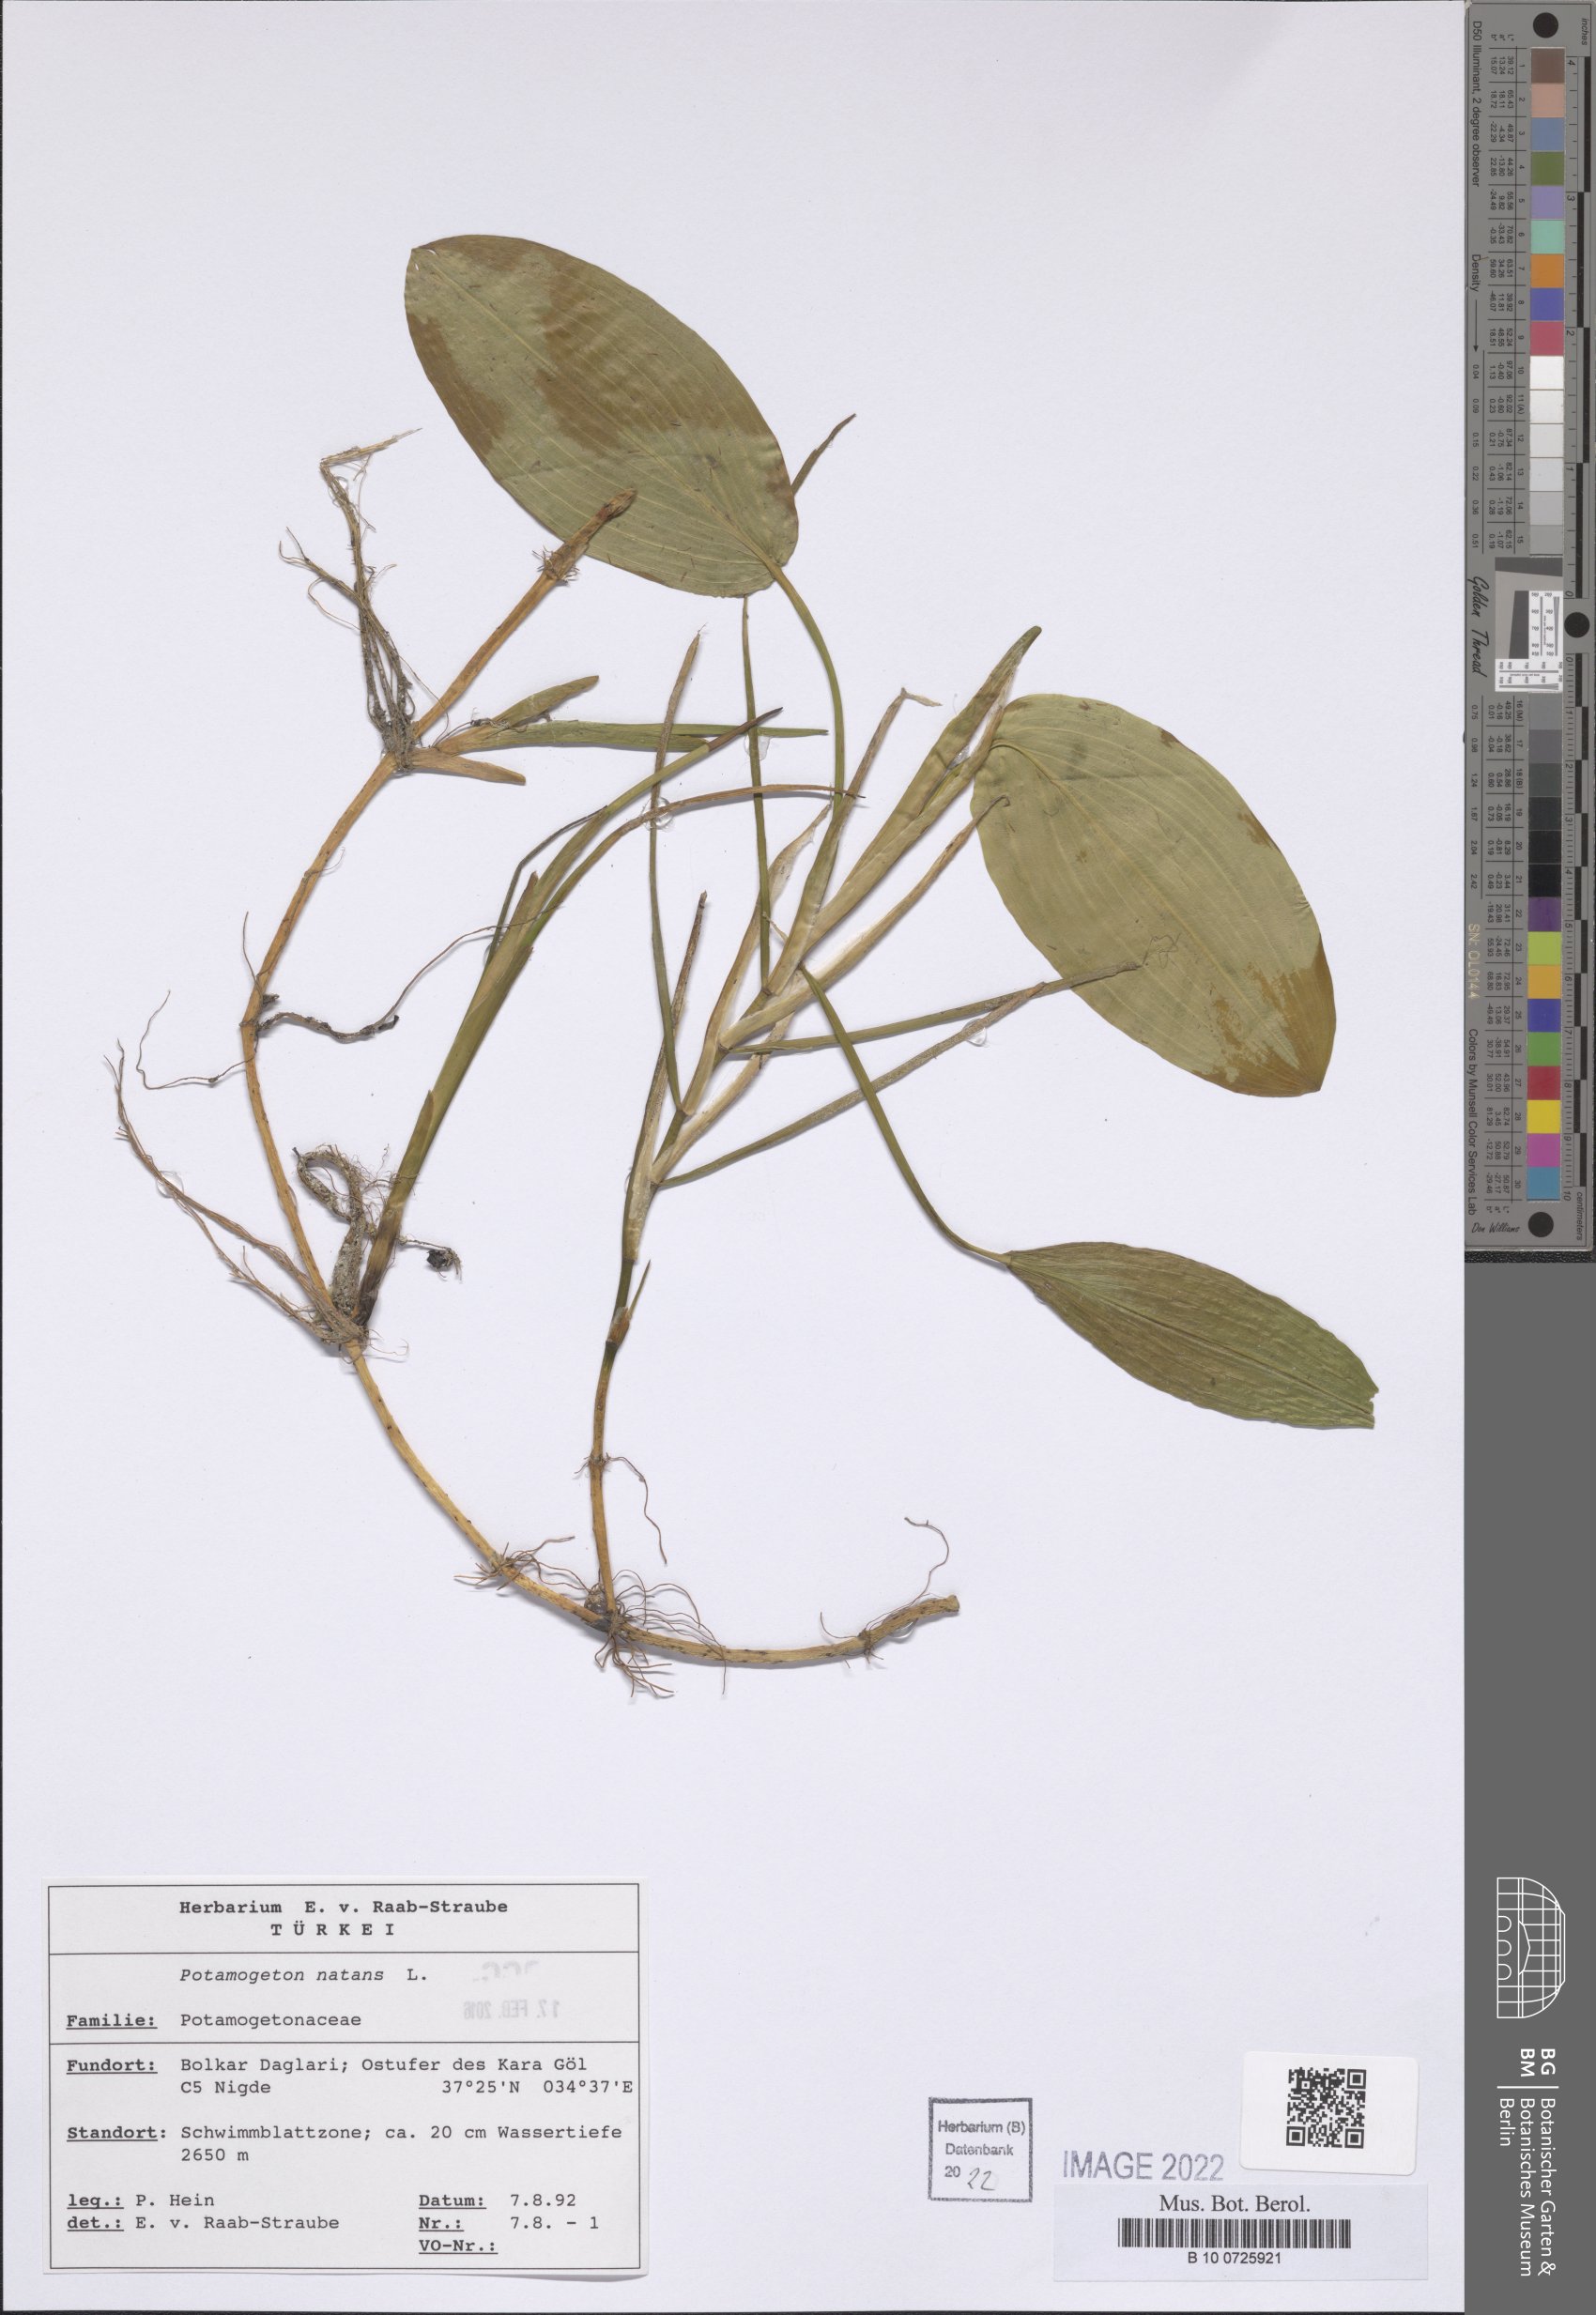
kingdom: Plantae
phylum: Tracheophyta
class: Liliopsida
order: Alismatales
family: Potamogetonaceae
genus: Potamogeton
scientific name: Potamogeton natans
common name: Broad-leaved pondweed
